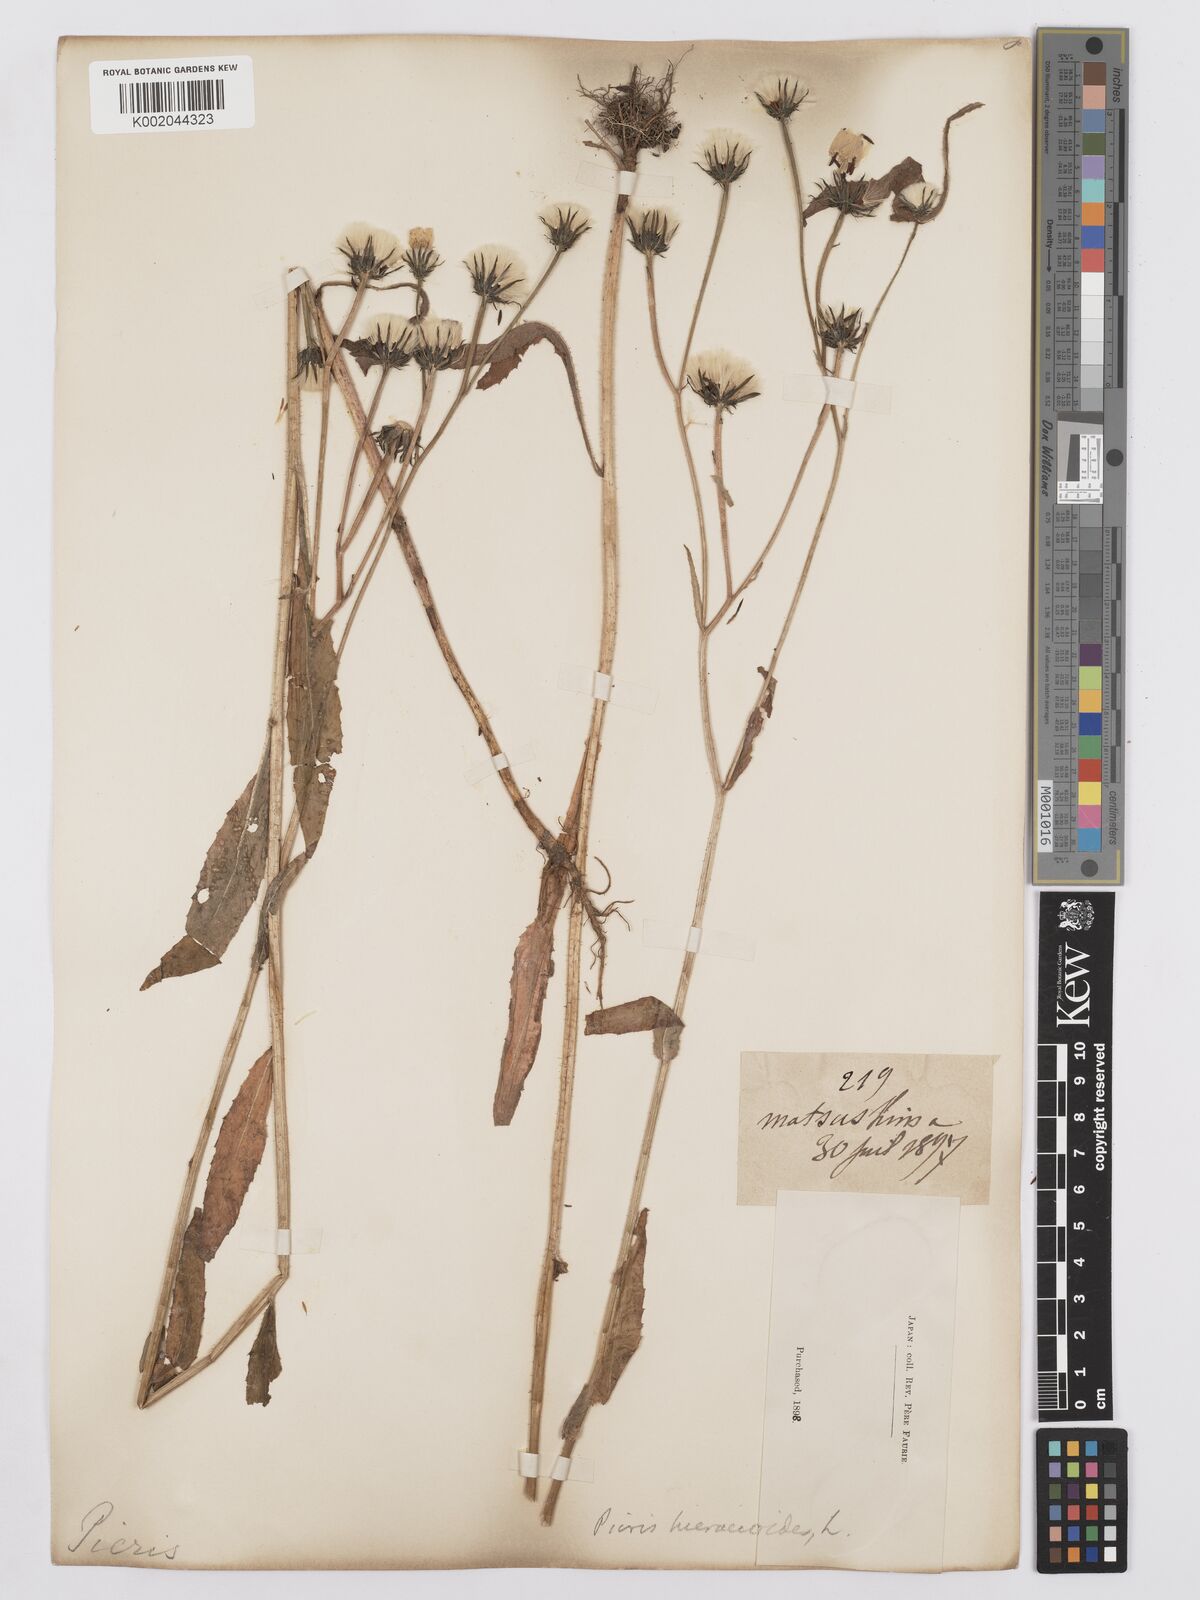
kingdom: Plantae
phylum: Tracheophyta
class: Magnoliopsida
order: Asterales
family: Asteraceae
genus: Picris
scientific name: Picris hieracioides
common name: Hawkweed oxtongue
